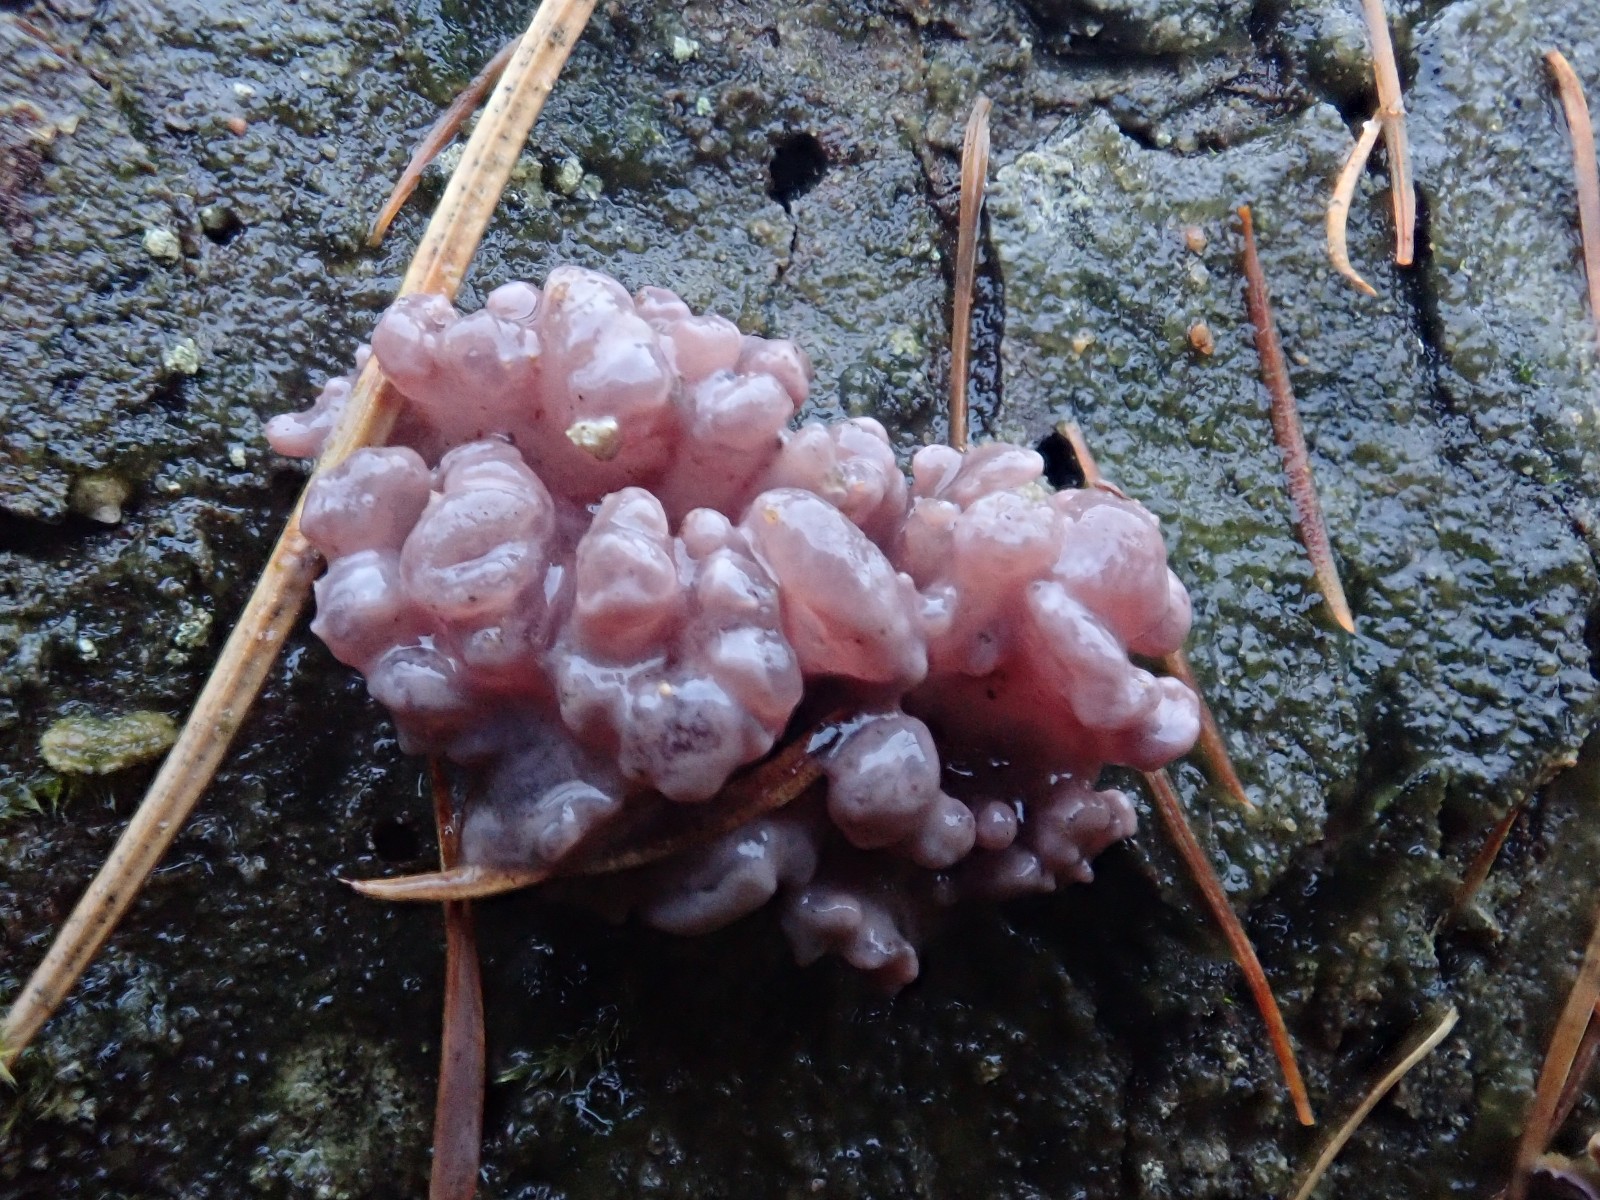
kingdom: Fungi
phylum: Ascomycota
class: Leotiomycetes
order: Helotiales
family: Gelatinodiscaceae
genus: Ascocoryne
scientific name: Ascocoryne sarcoides
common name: rødlilla sejskive
